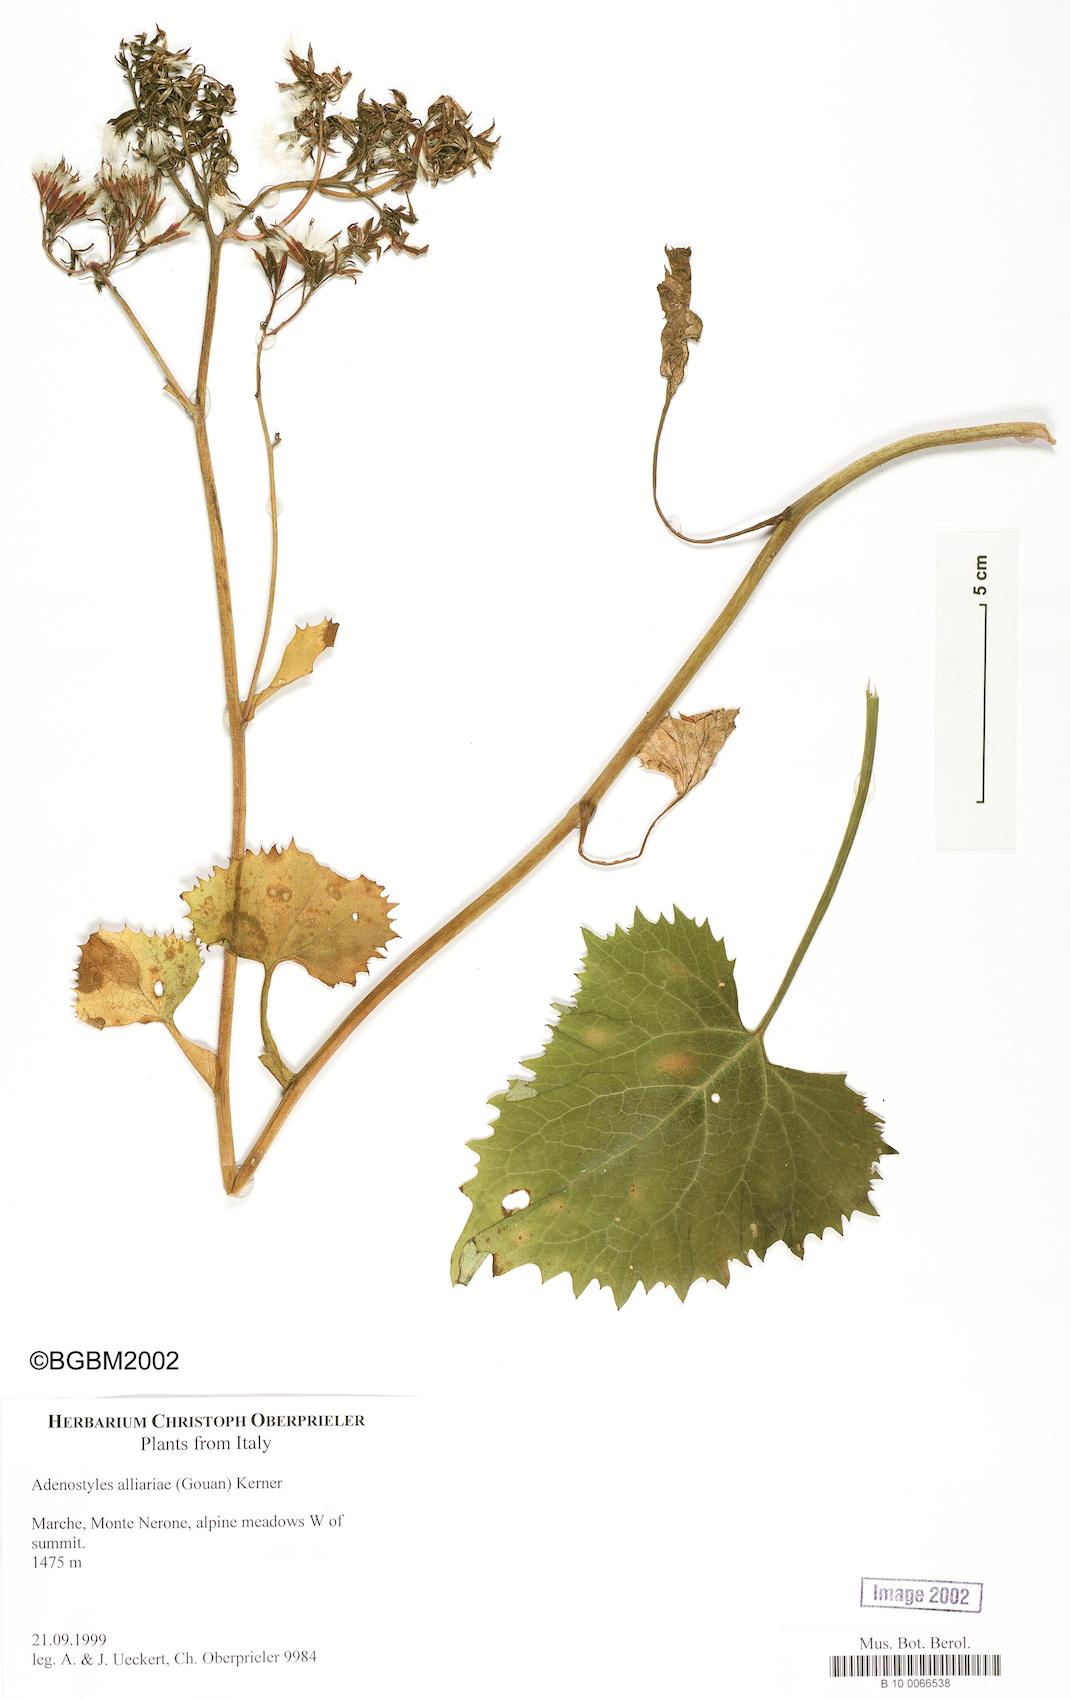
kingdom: Plantae
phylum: Tracheophyta
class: Magnoliopsida
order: Asterales
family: Asteraceae
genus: Adenostyles
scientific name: Adenostyles alliariae
